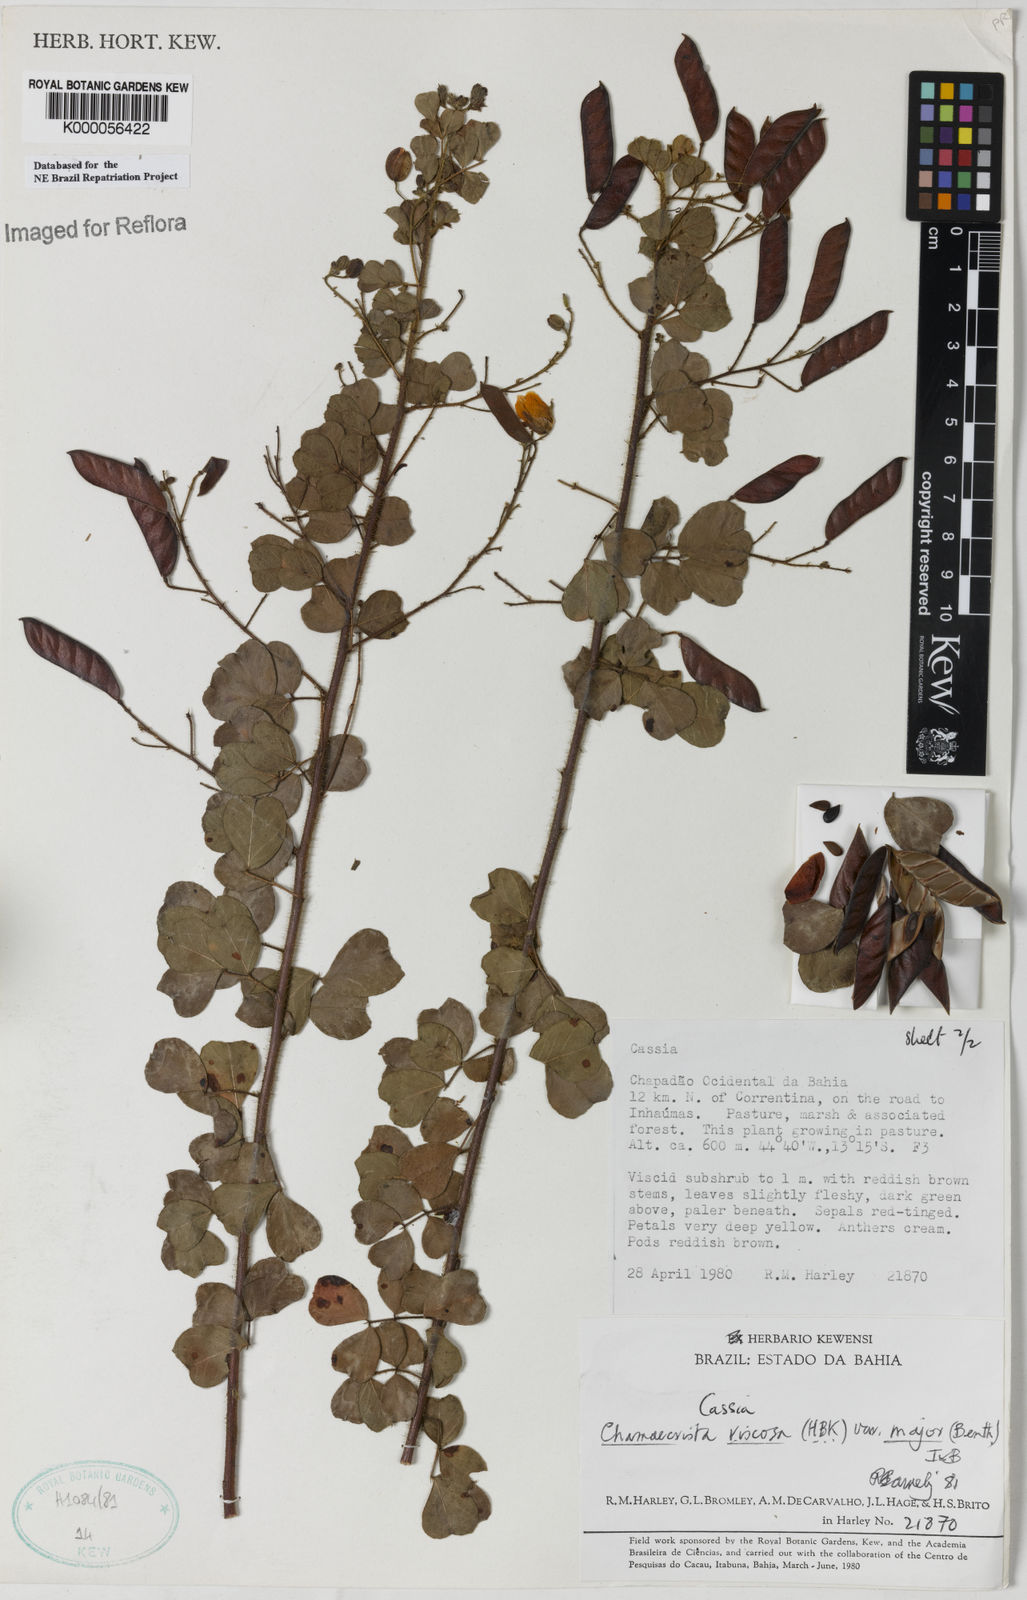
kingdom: Plantae
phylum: Tracheophyta
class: Magnoliopsida
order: Fabales
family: Fabaceae
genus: Chamaecrista
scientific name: Chamaecrista viscosa
